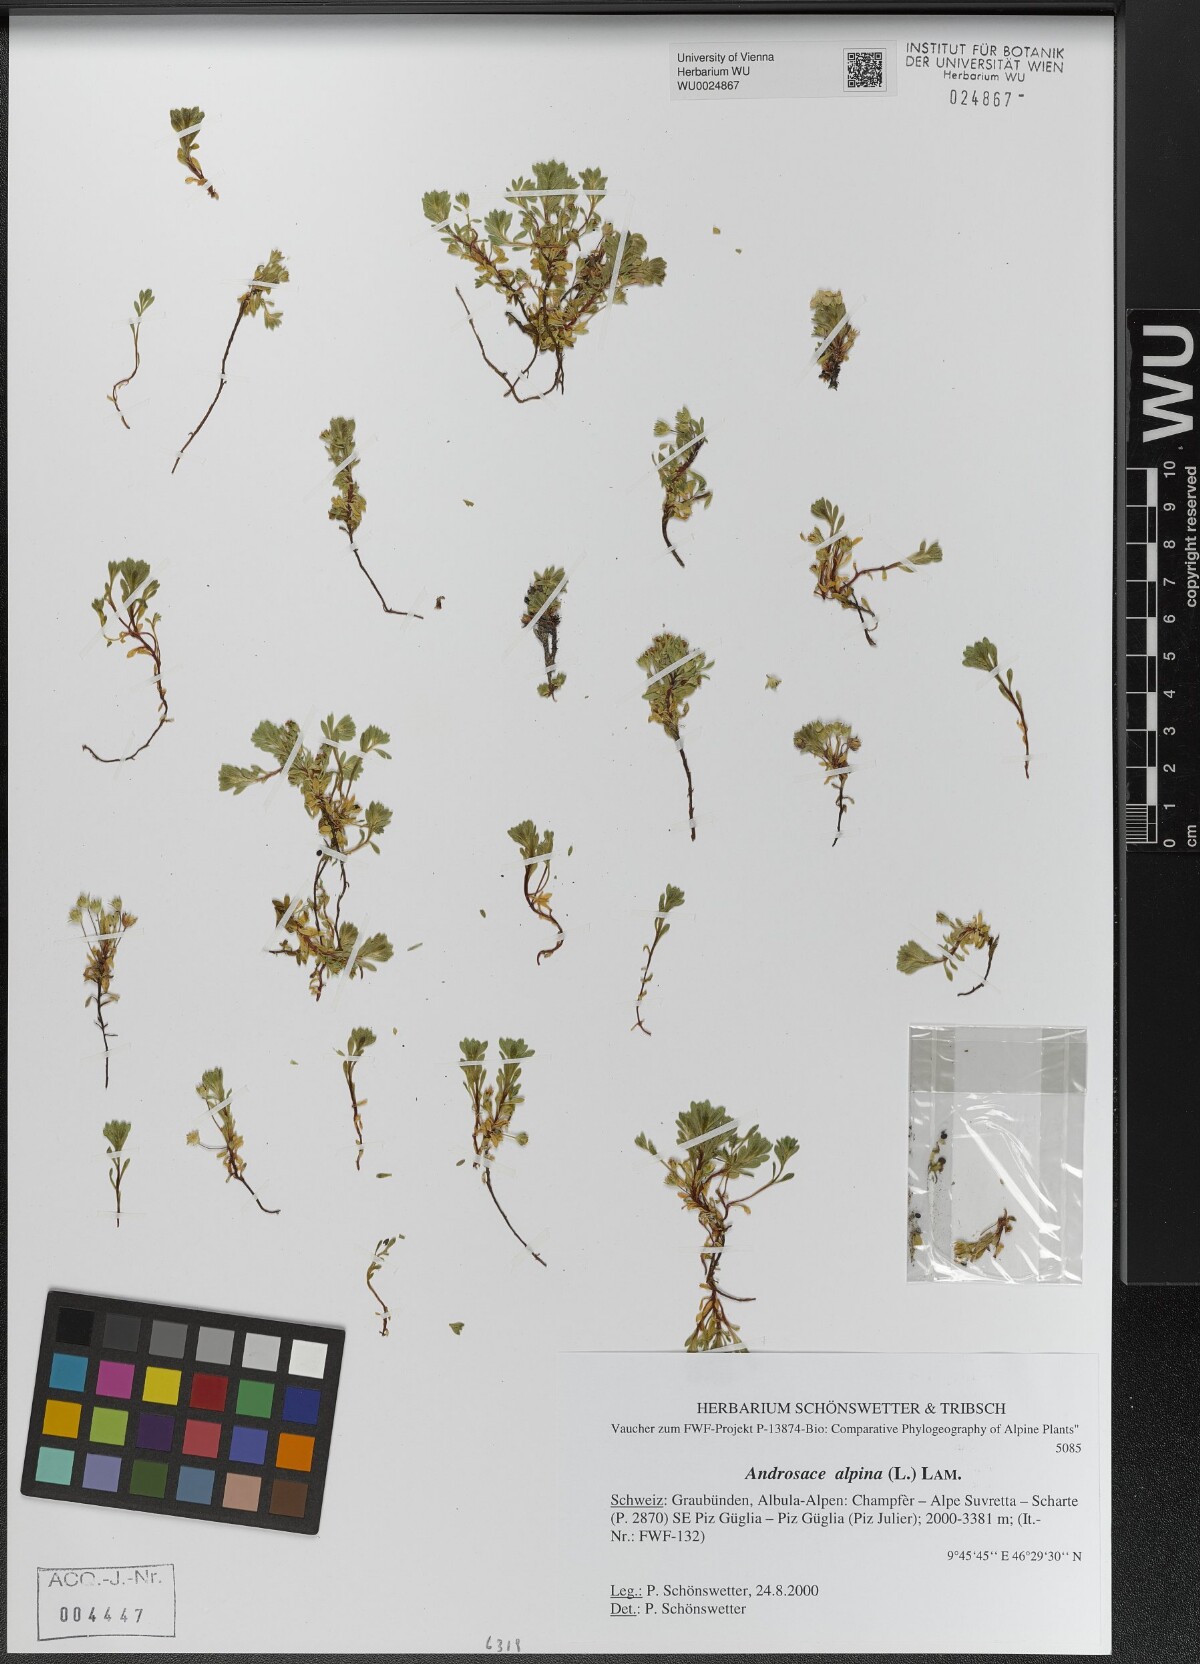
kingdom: Plantae
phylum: Tracheophyta
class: Magnoliopsida
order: Ericales
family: Primulaceae
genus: Androsace
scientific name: Androsace alpina
